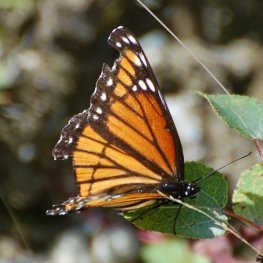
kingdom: Animalia
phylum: Arthropoda
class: Insecta
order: Lepidoptera
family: Nymphalidae
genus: Limenitis
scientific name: Limenitis archippus
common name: Viceroy
